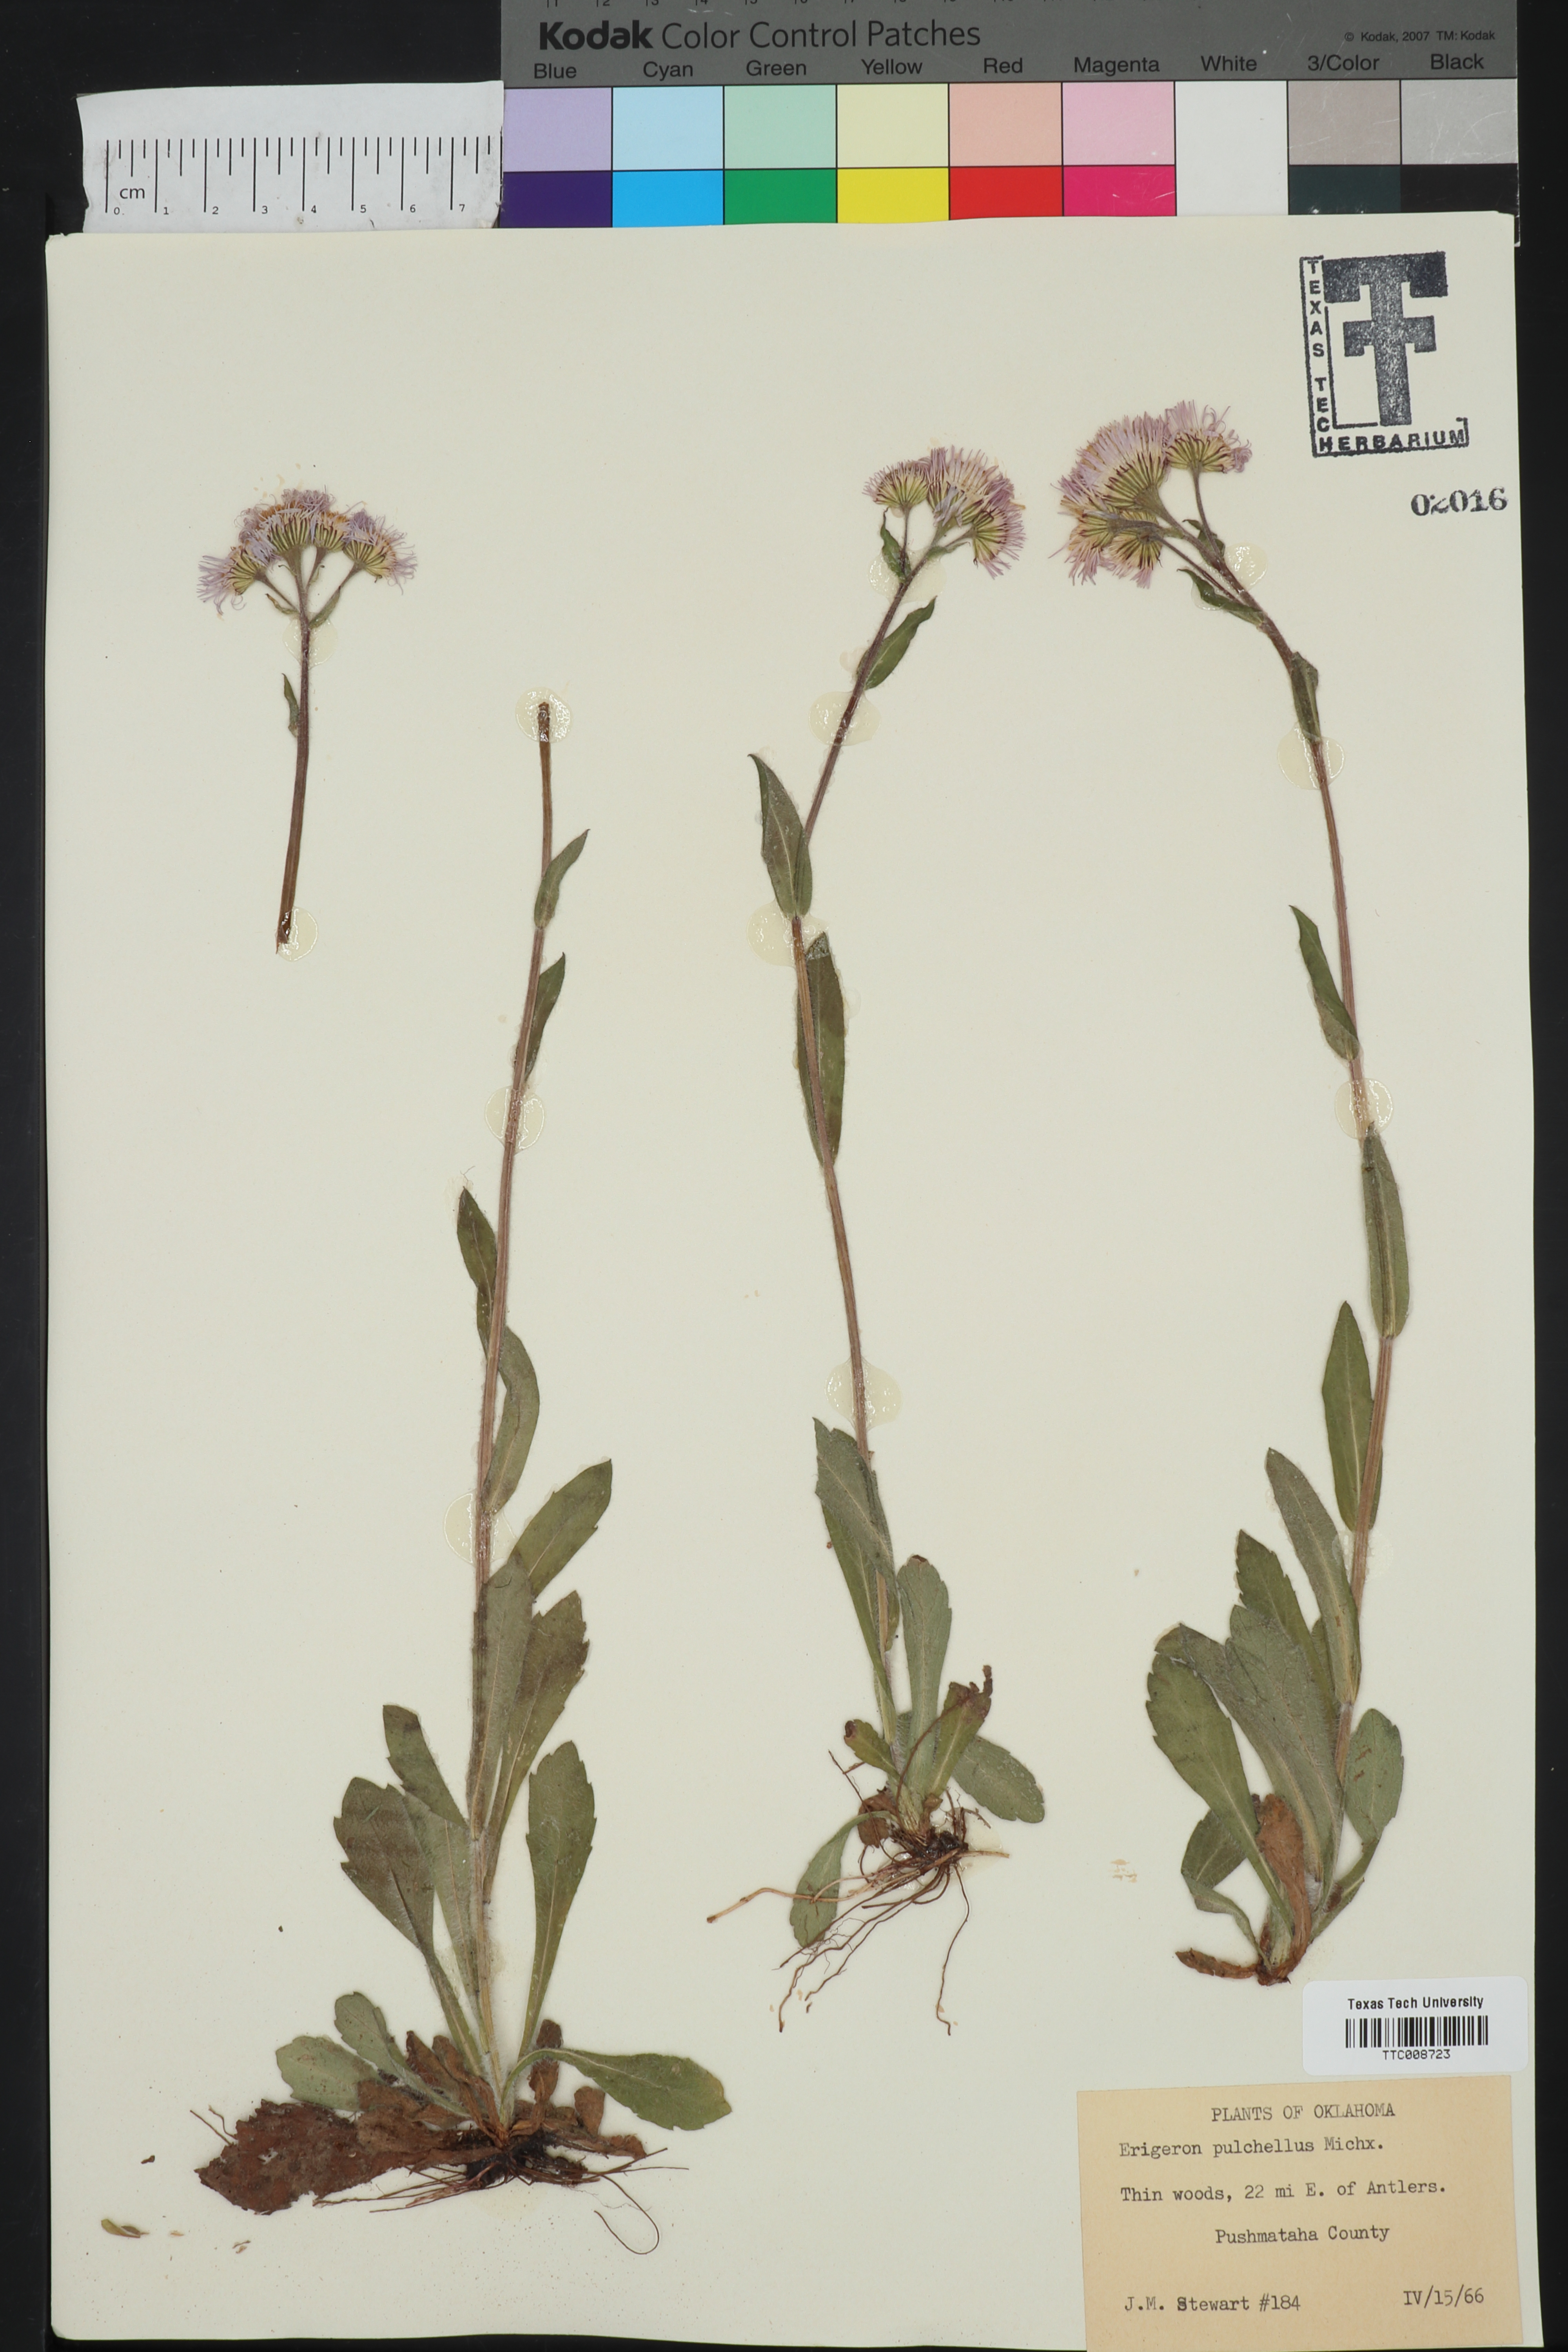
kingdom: Plantae
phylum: Tracheophyta
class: Magnoliopsida
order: Asterales
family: Asteraceae
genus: Erigeron
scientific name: Erigeron pulchellus
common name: Hairy fleabane
